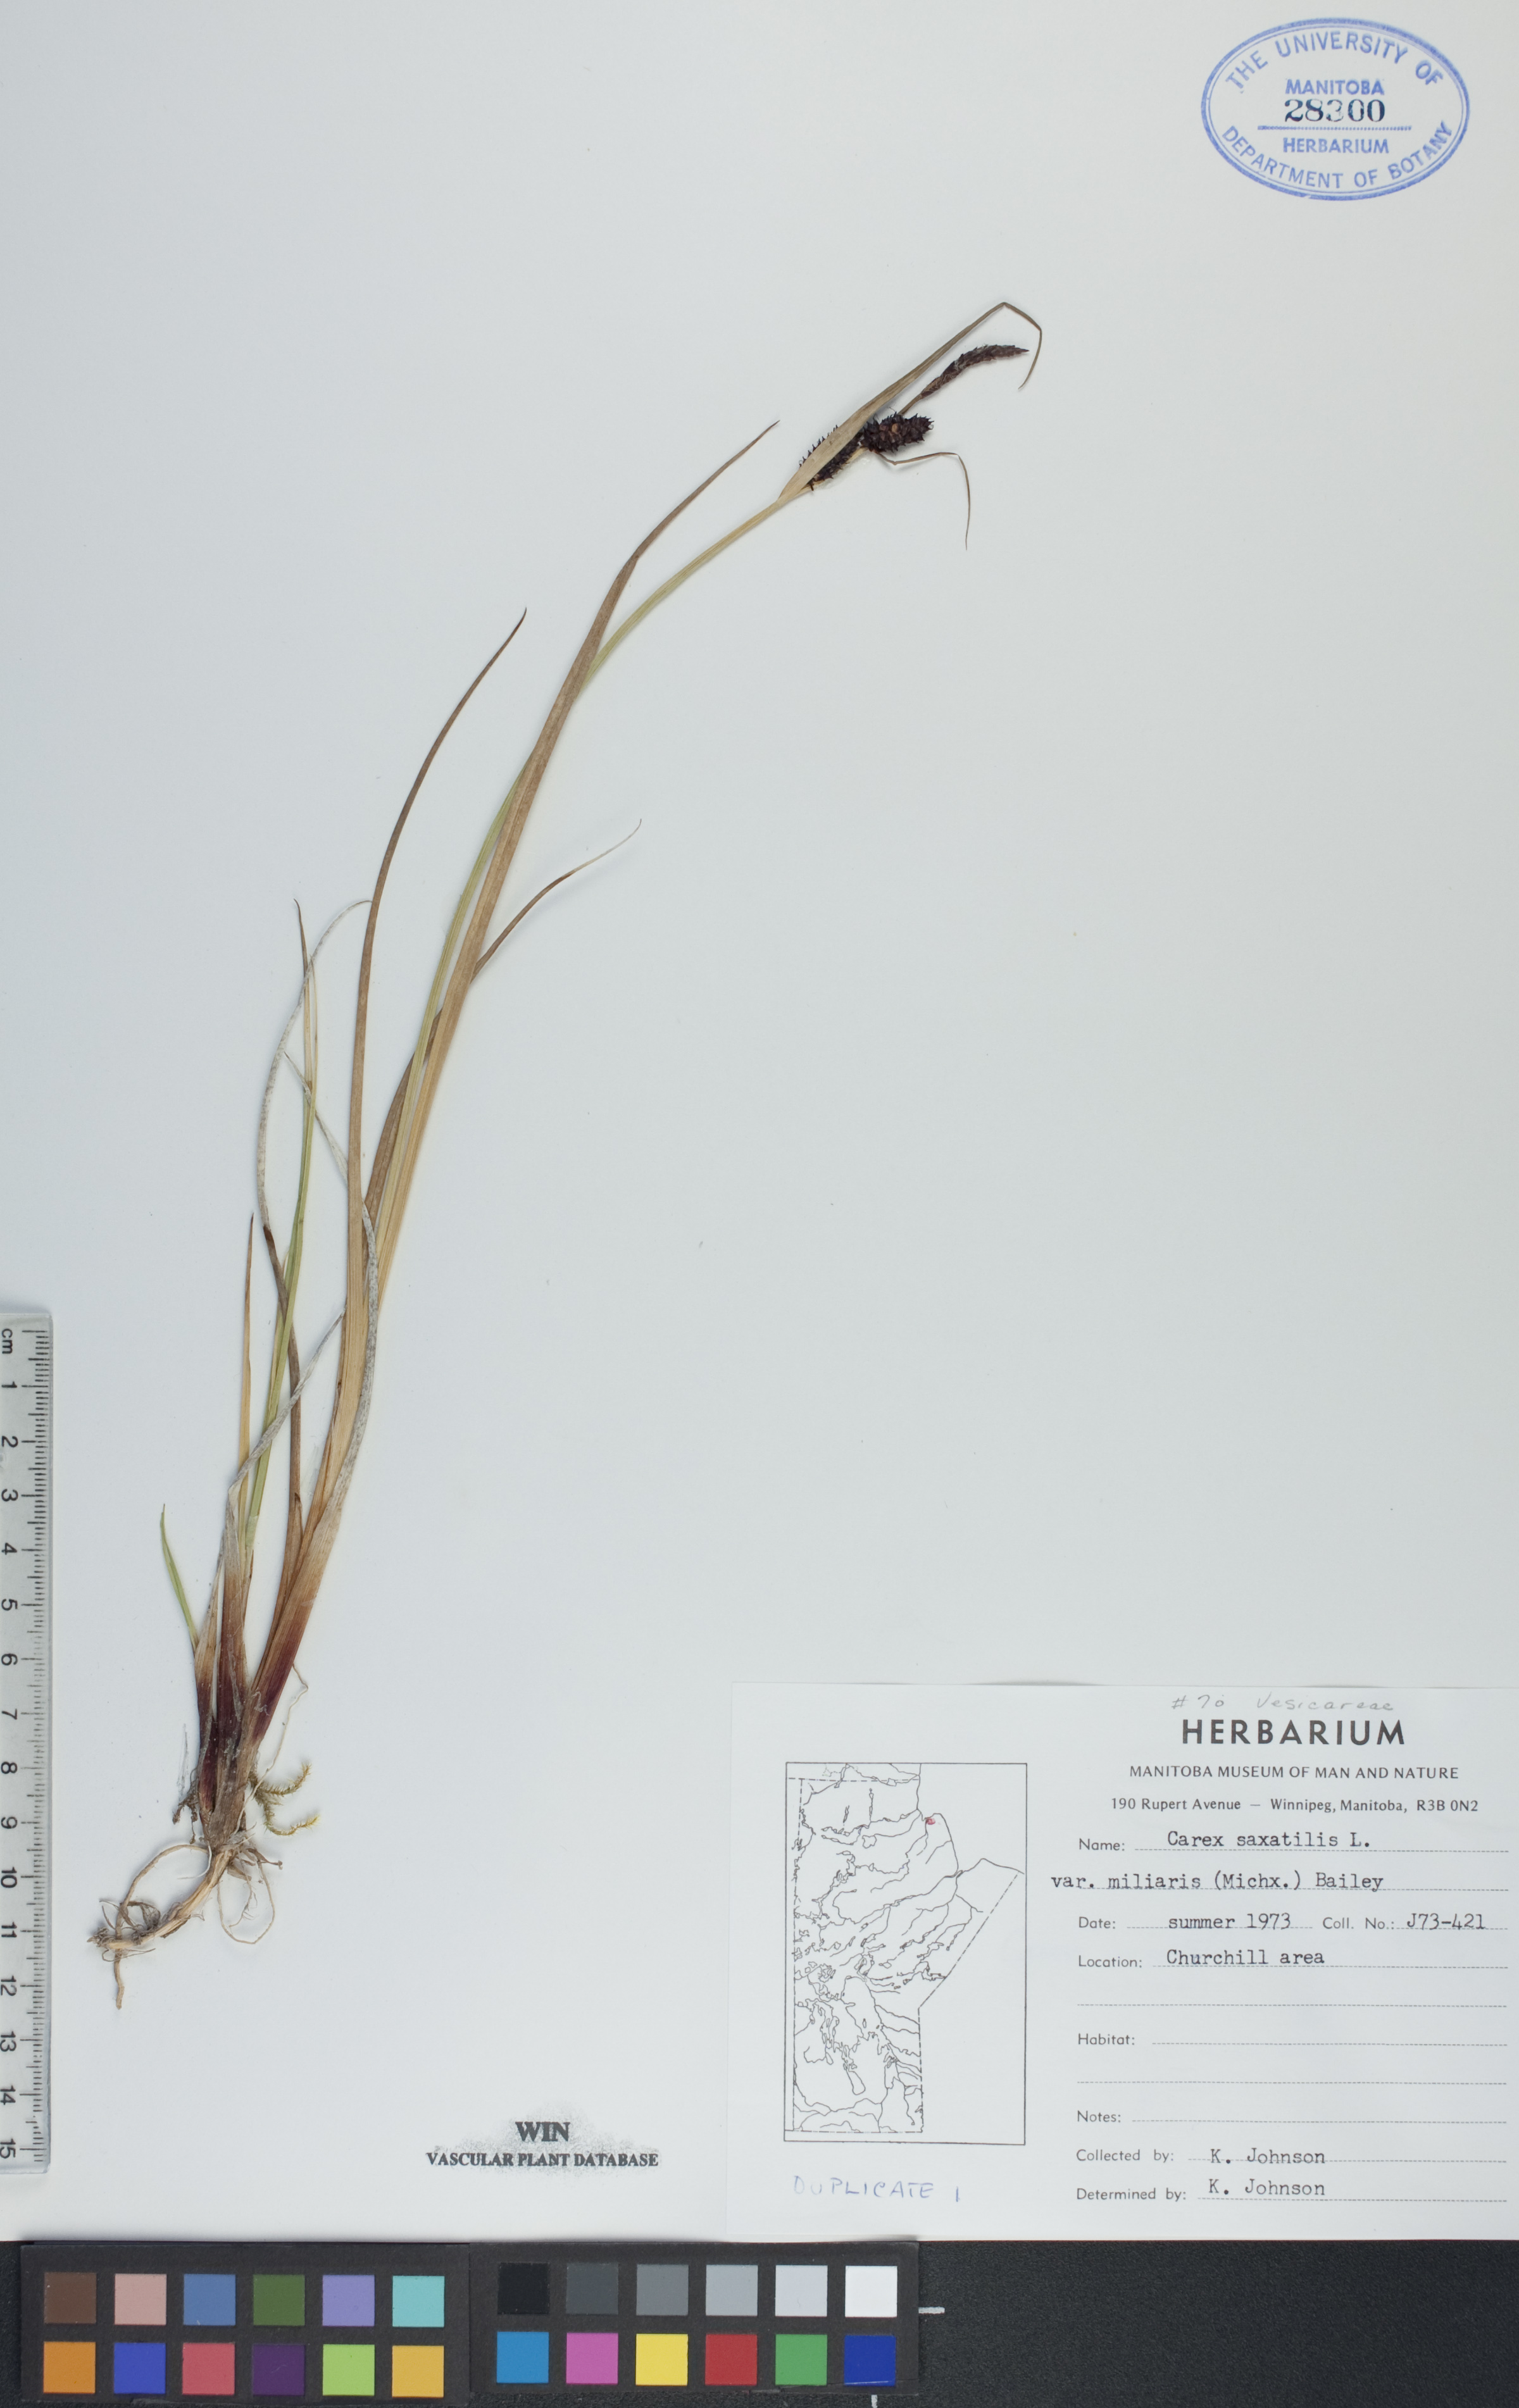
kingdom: Plantae
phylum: Tracheophyta
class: Liliopsida
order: Poales
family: Cyperaceae
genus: Carex
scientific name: Carex miliaris
